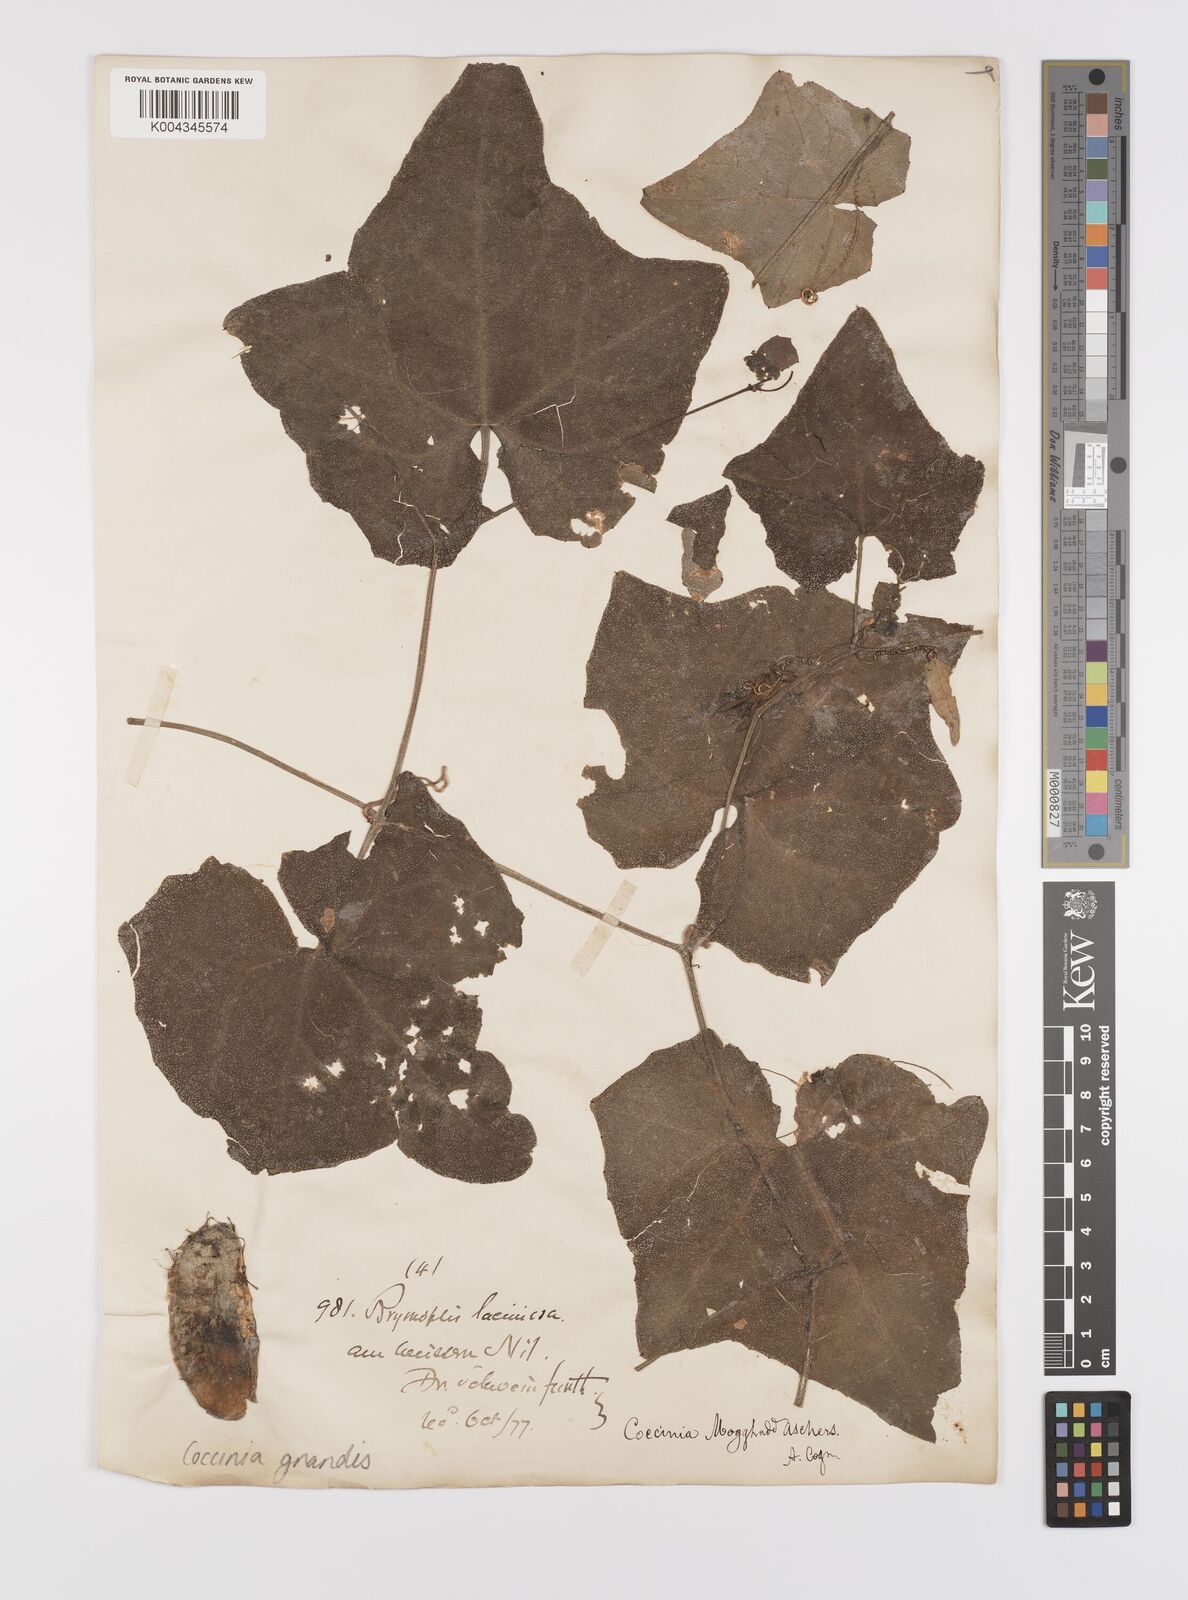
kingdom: Plantae
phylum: Tracheophyta
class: Magnoliopsida
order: Cucurbitales
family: Cucurbitaceae
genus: Coccinia
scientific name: Coccinia grandis
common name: Ivy gourd
